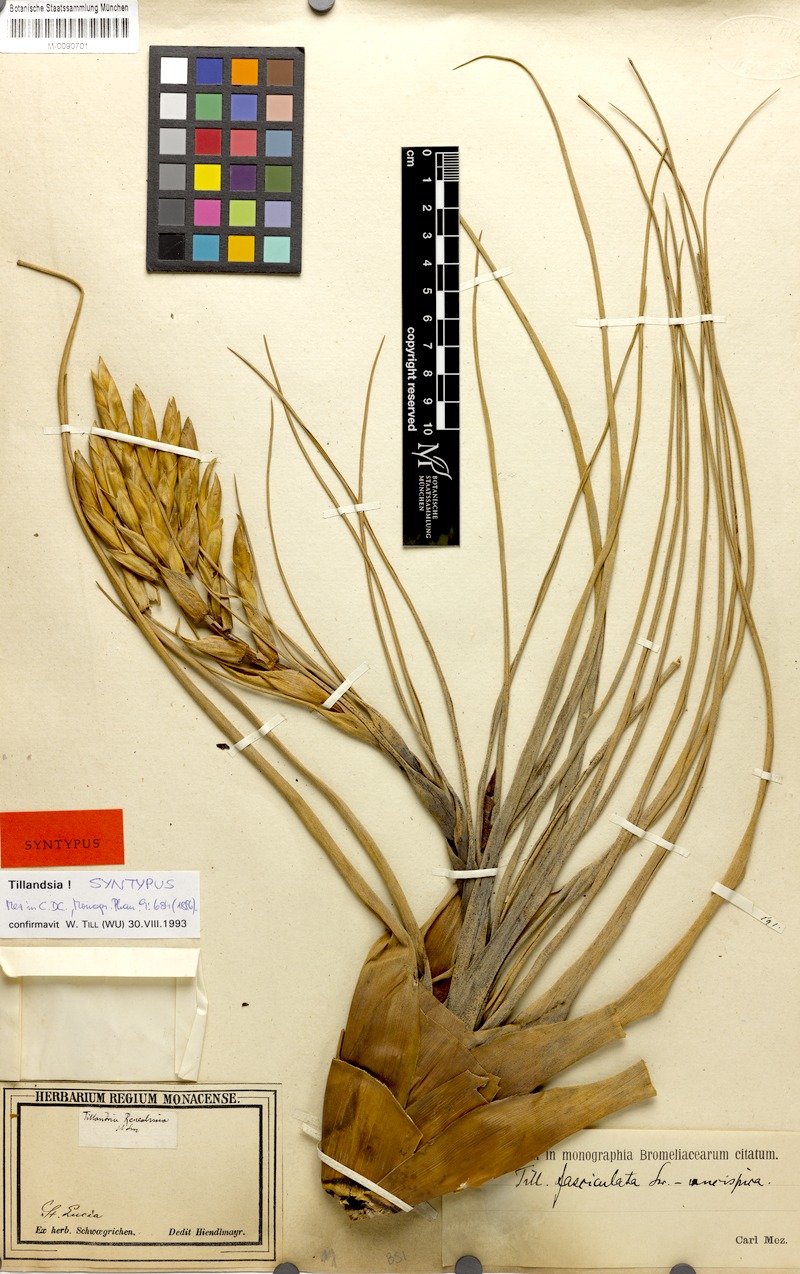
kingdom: Plantae
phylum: Tracheophyta
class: Liliopsida
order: Poales
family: Bromeliaceae
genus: Tillandsia
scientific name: Tillandsia fasciculata
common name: Giant airplant
